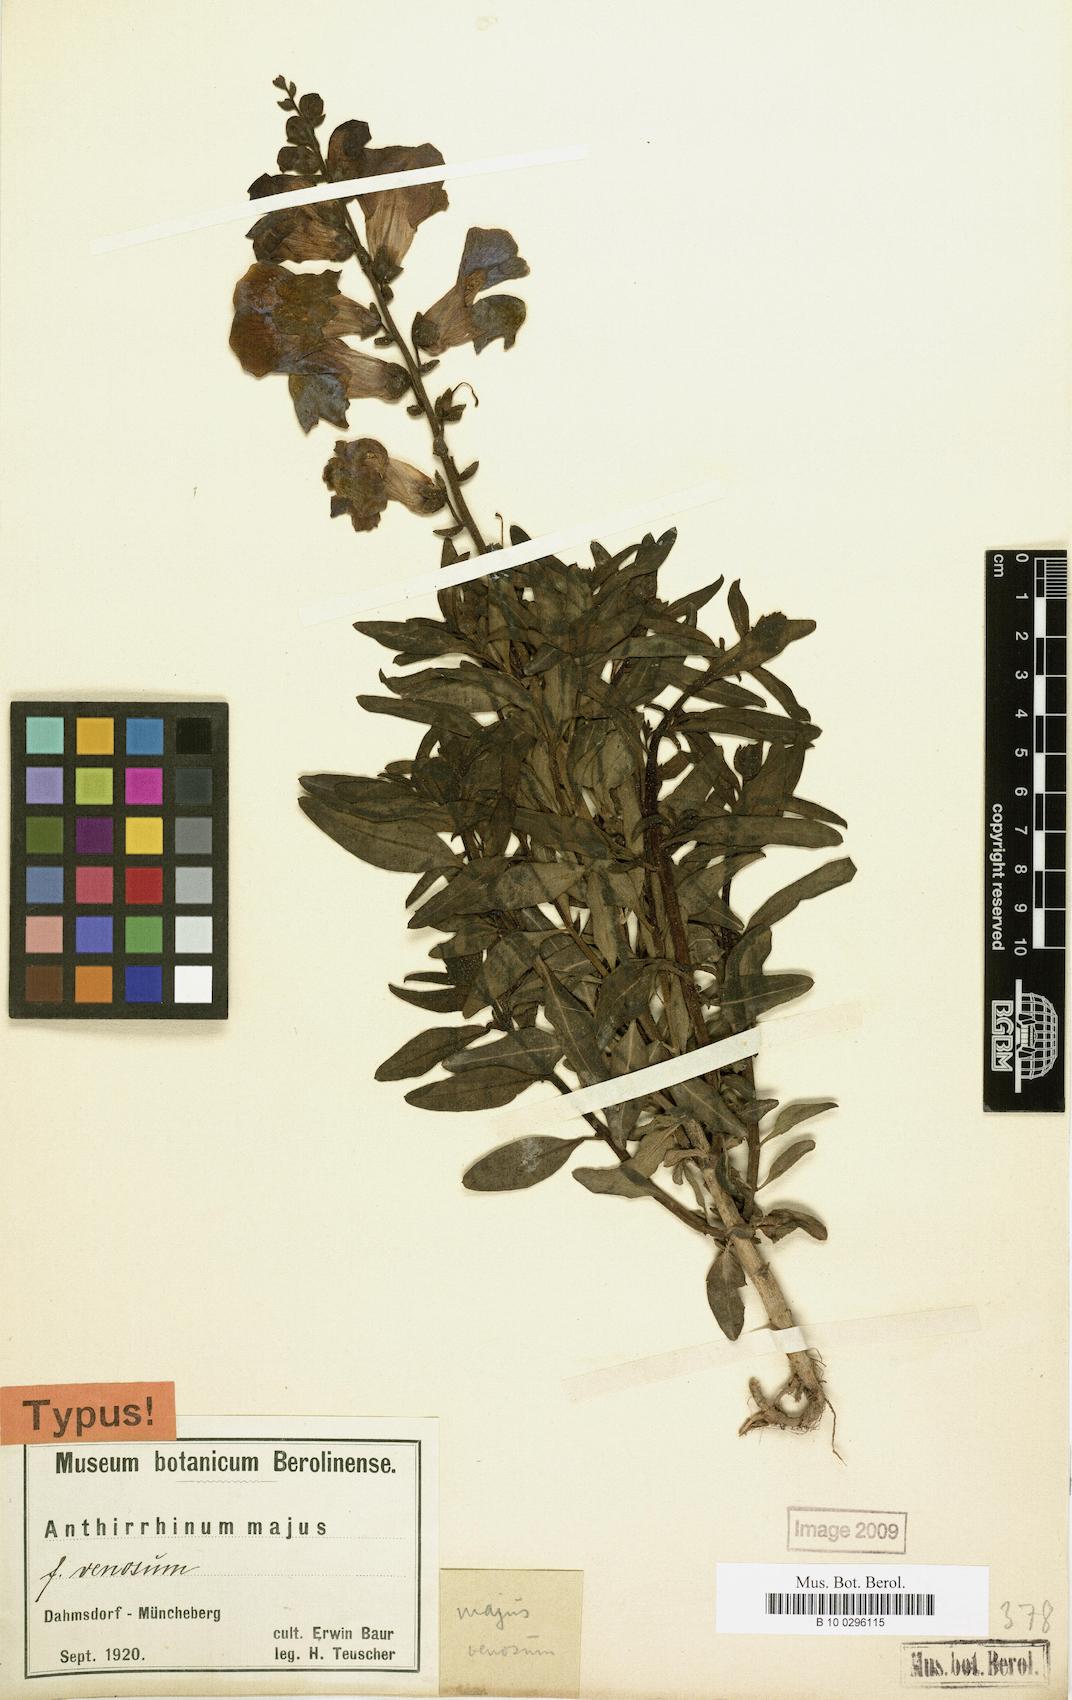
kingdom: Plantae
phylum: Tracheophyta
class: Magnoliopsida
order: Lamiales
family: Plantaginaceae
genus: Antirrhinum
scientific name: Antirrhinum majus
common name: Snapdragon
